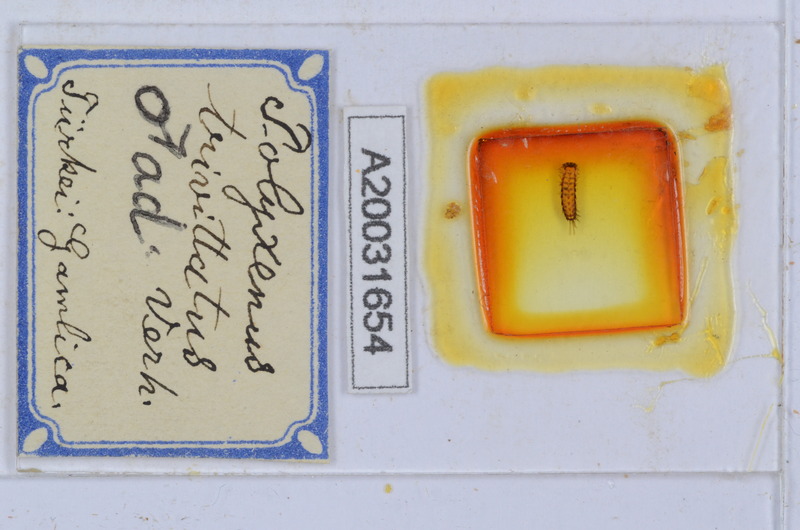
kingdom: Animalia
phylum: Arthropoda
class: Diplopoda
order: Polyxenida
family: Polyxenidae
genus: Propolyxenus
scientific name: Propolyxenus argentifer
